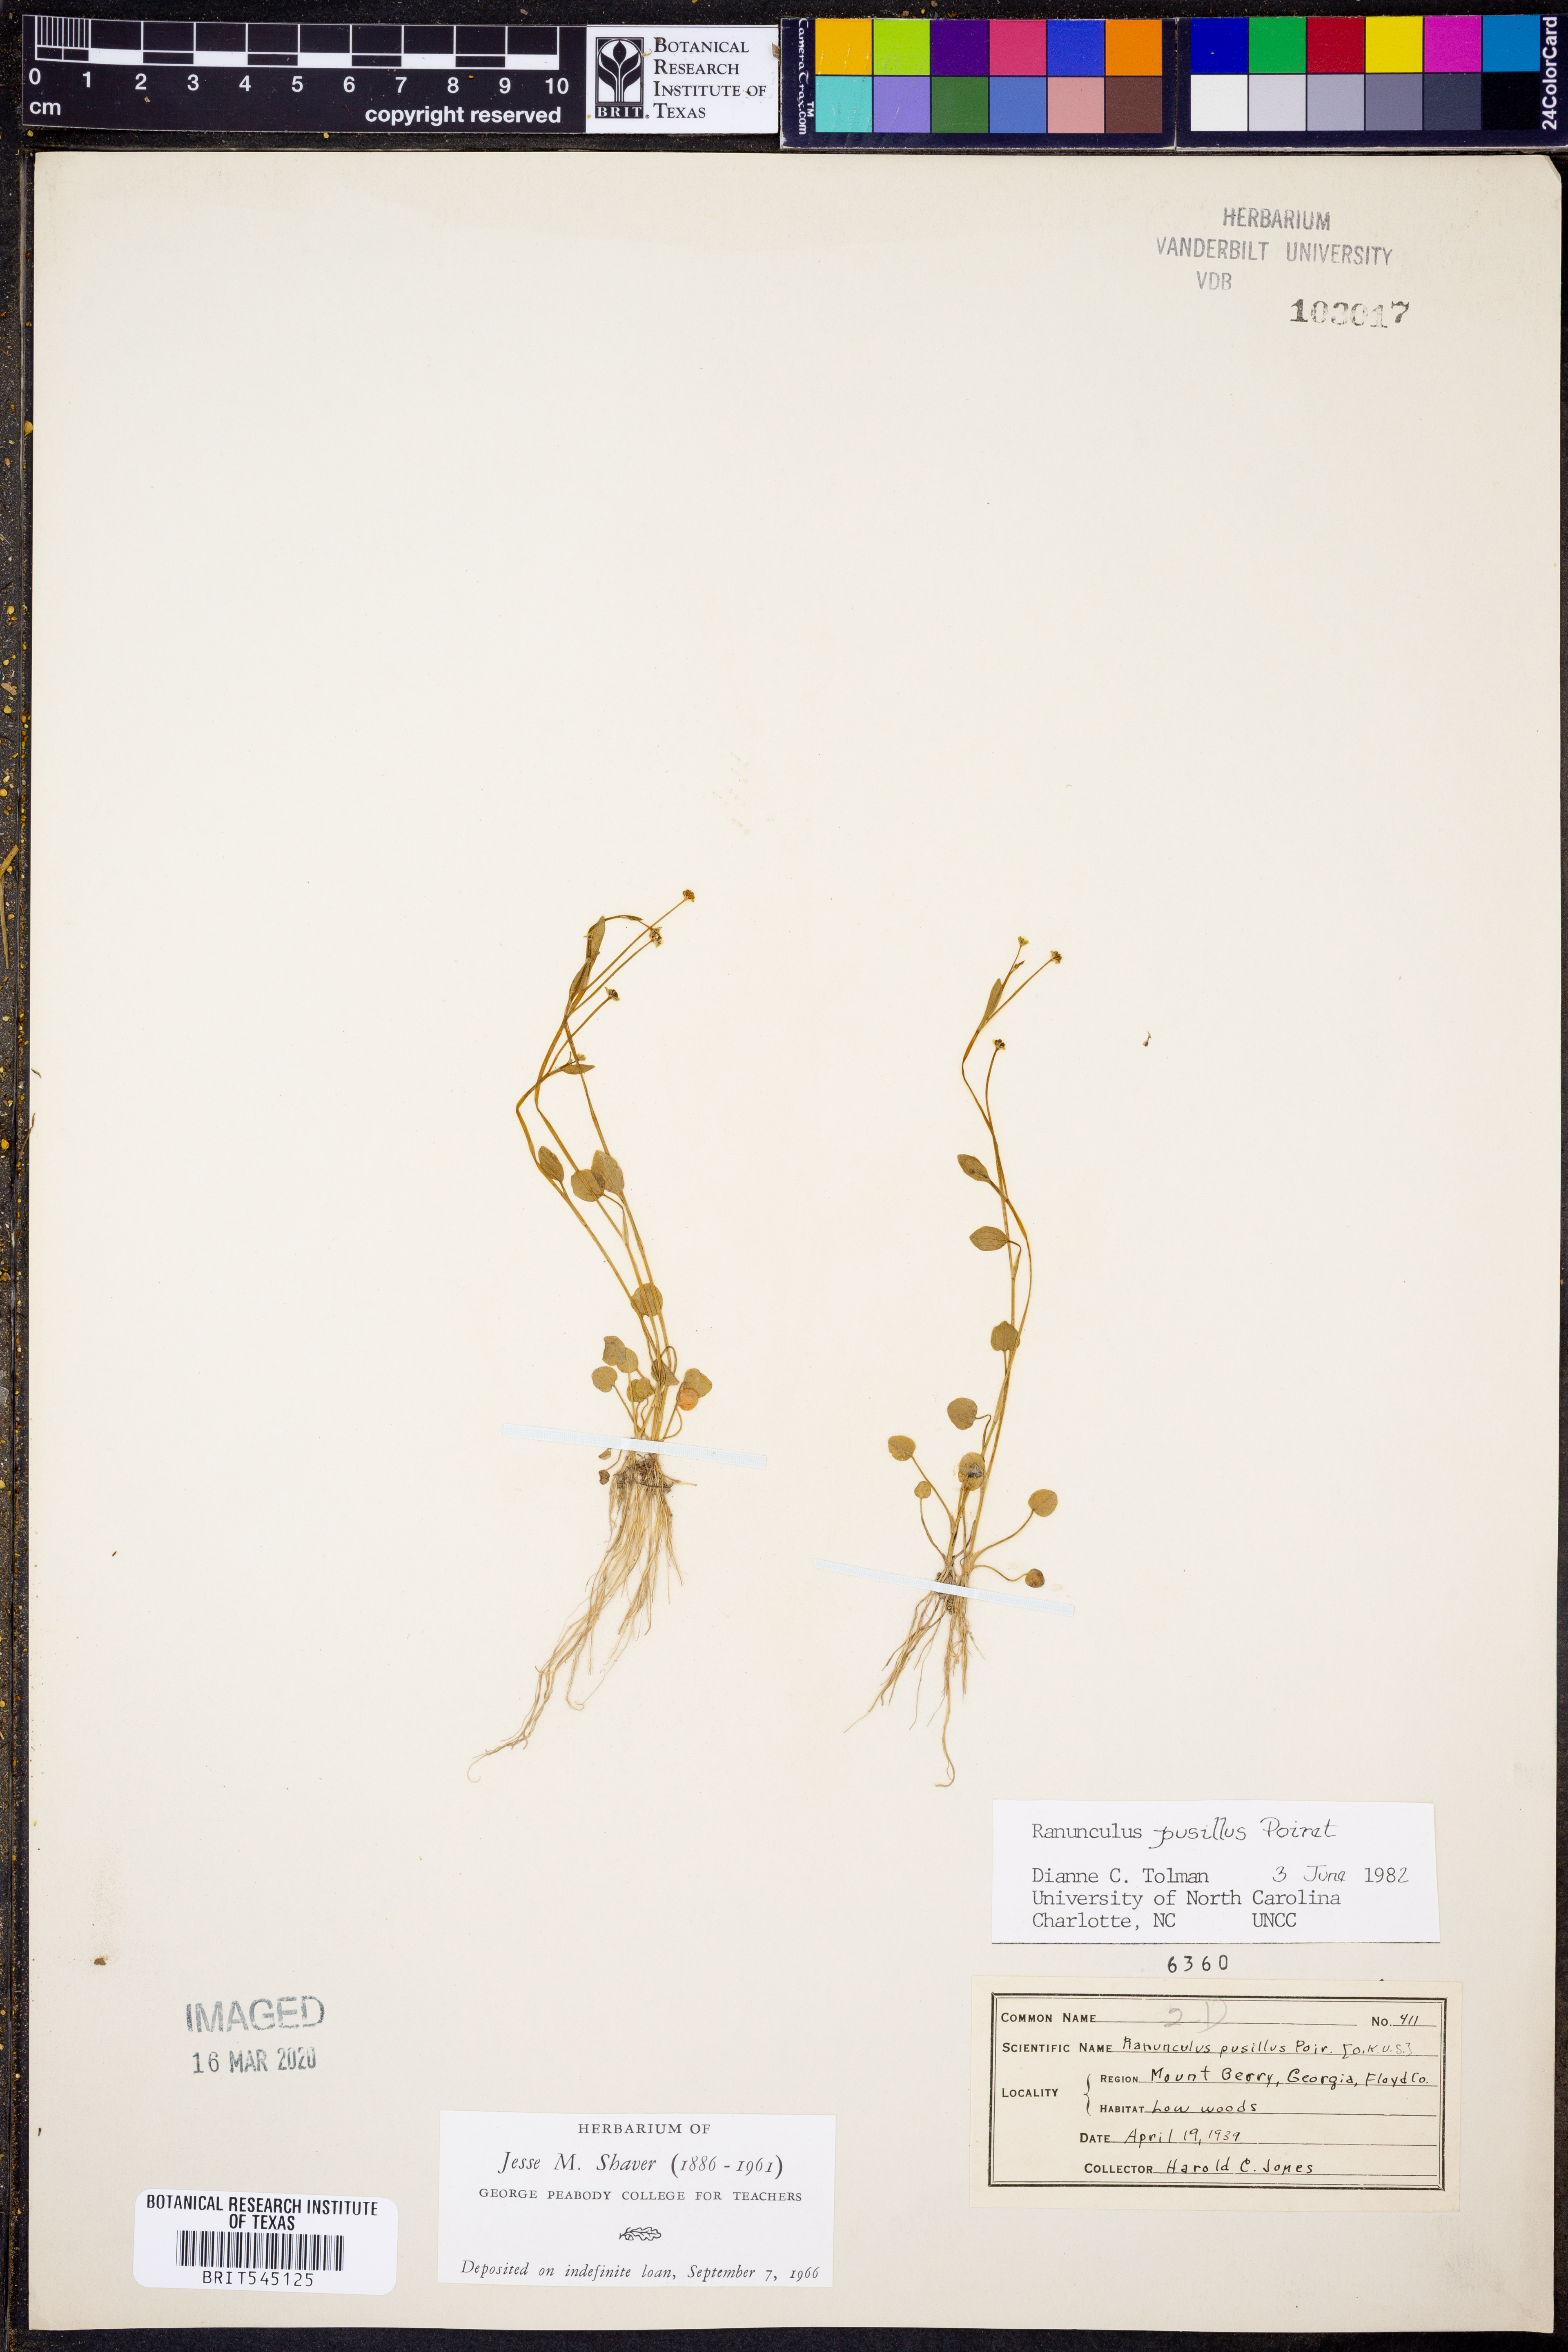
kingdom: Plantae
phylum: Tracheophyta
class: Magnoliopsida
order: Ranunculales
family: Ranunculaceae
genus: Ranunculus
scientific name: Ranunculus pusillus
